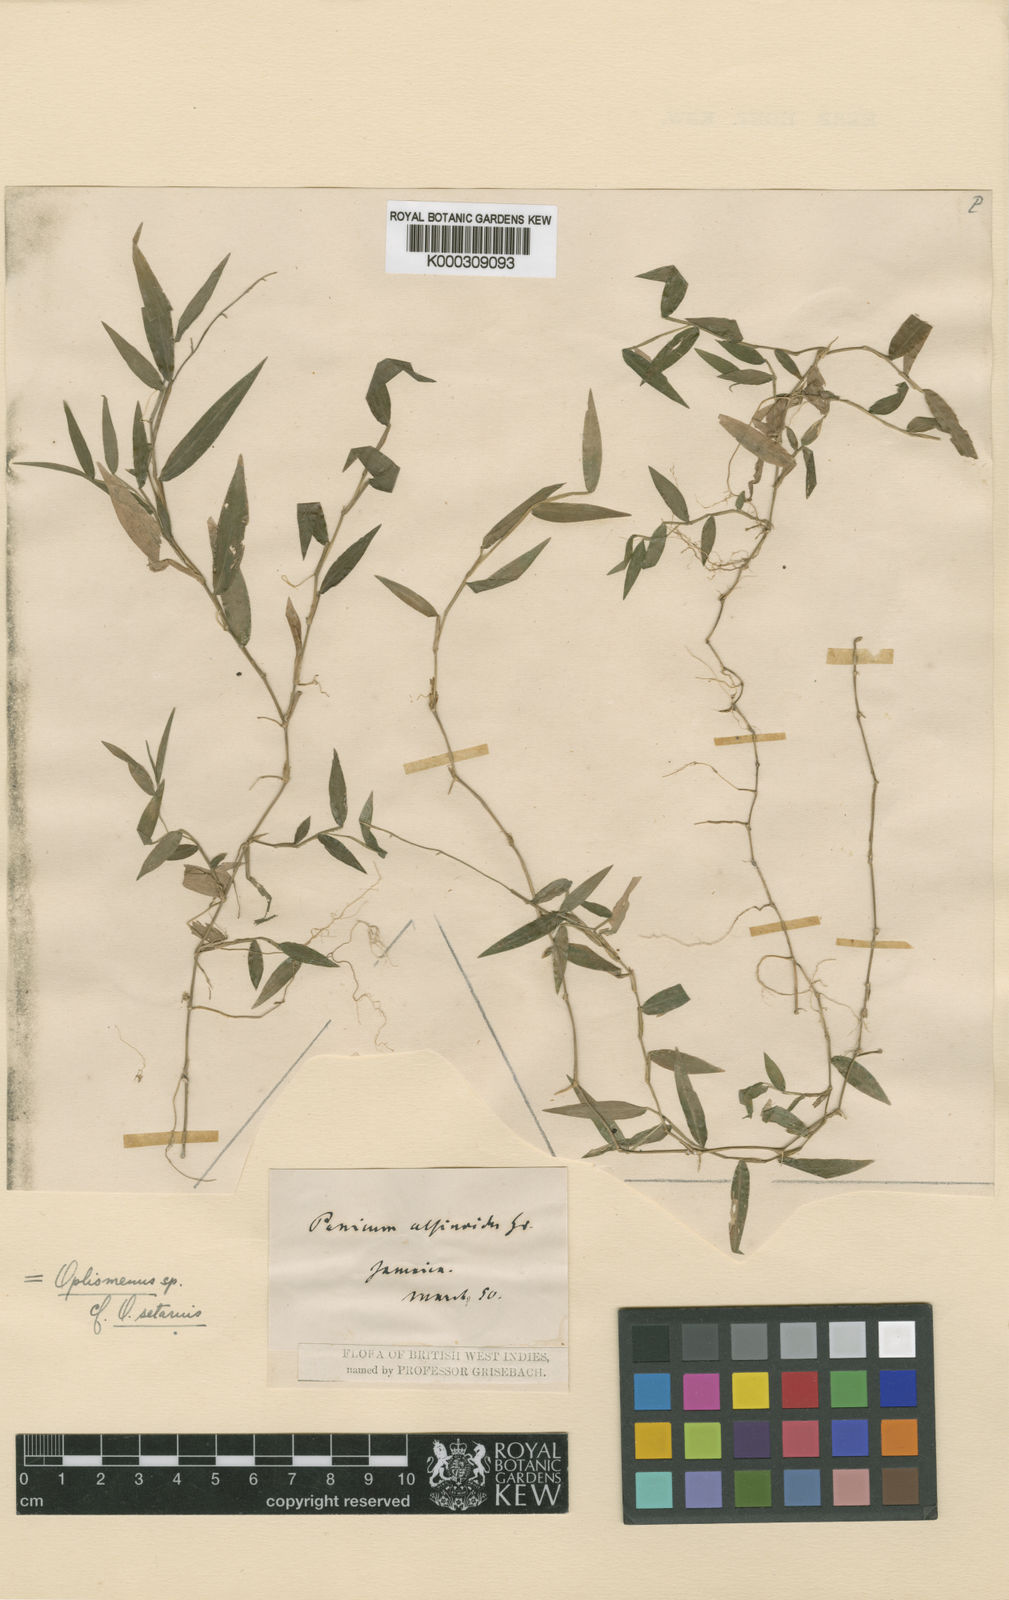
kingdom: Plantae
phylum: Tracheophyta
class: Liliopsida
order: Poales
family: Poaceae
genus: Ichnanthus
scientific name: Ichnanthus tenuis
